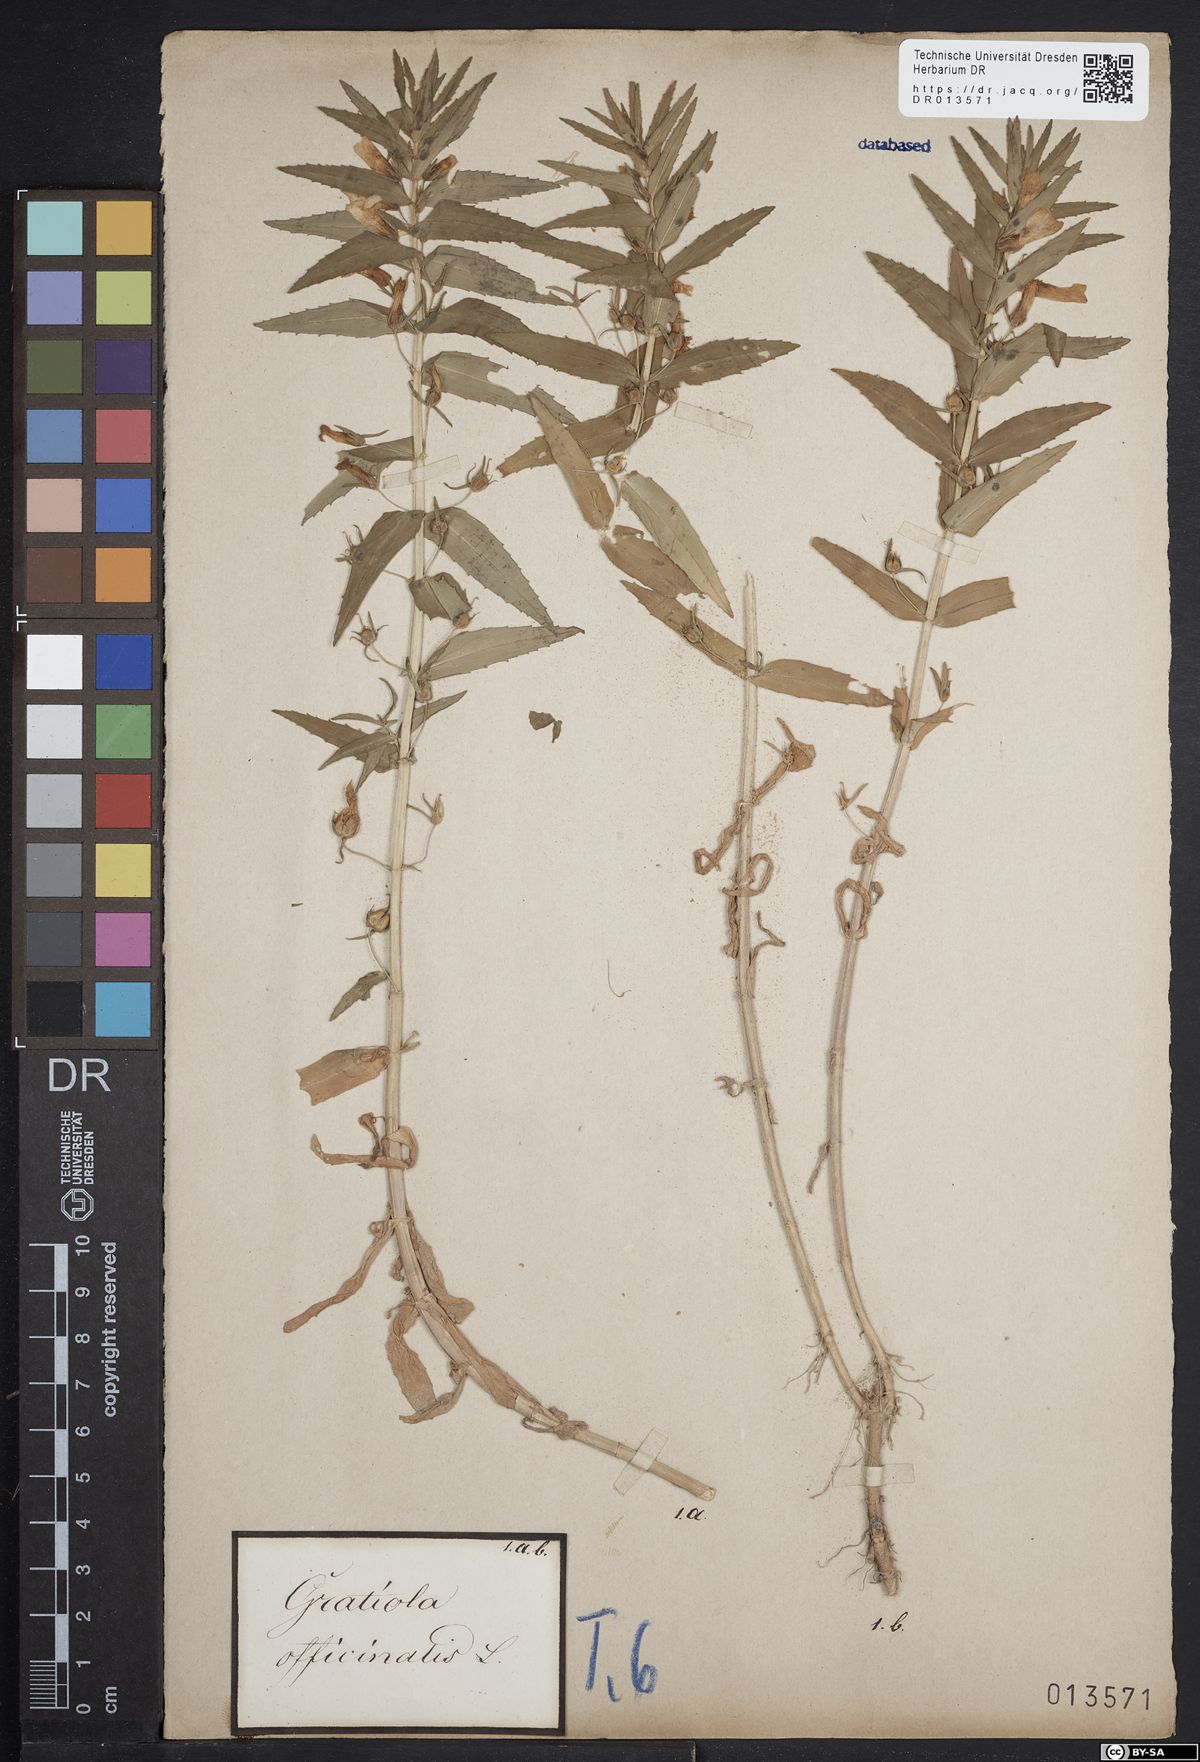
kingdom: Plantae
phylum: Tracheophyta
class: Magnoliopsida
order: Lamiales
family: Plantaginaceae
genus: Gratiola
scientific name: Gratiola officinalis
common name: Gratiola
